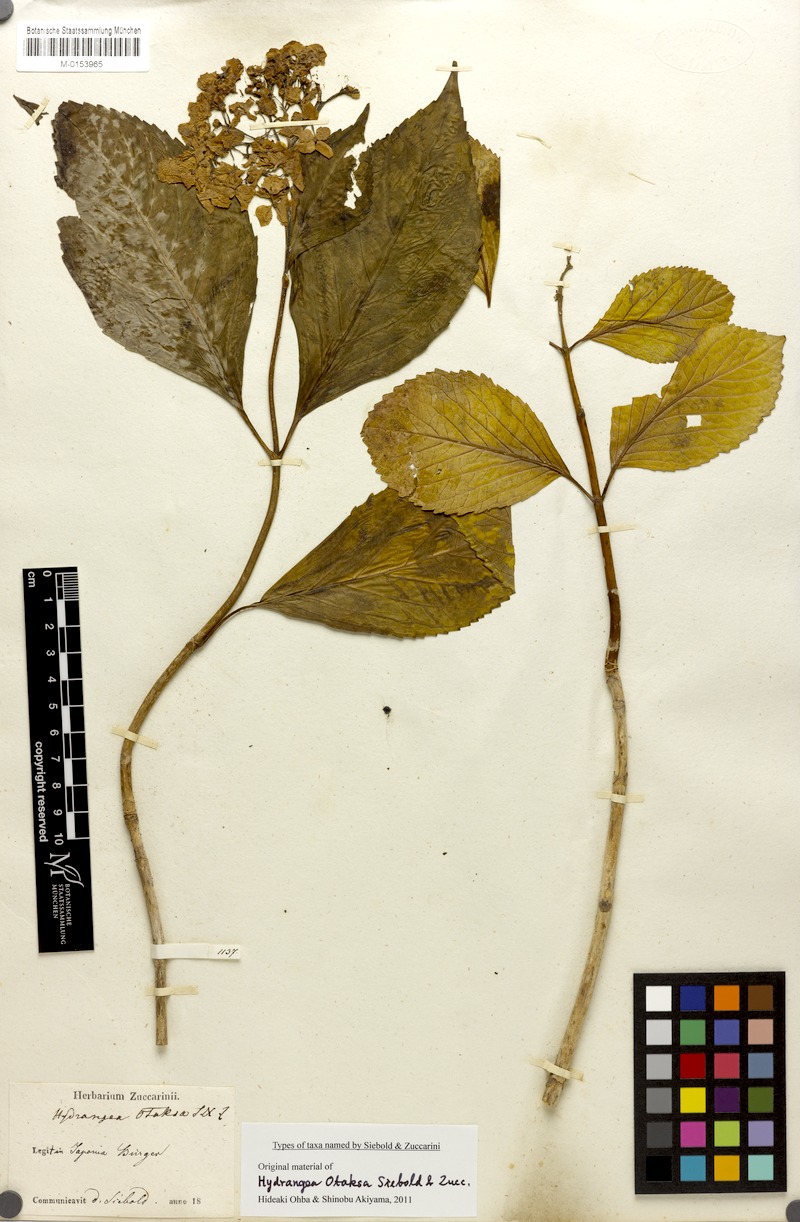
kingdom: Plantae
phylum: Tracheophyta
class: Magnoliopsida
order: Cornales
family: Hydrangeaceae
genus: Hydrangea
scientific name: Hydrangea macrophylla
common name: Hydrangea
